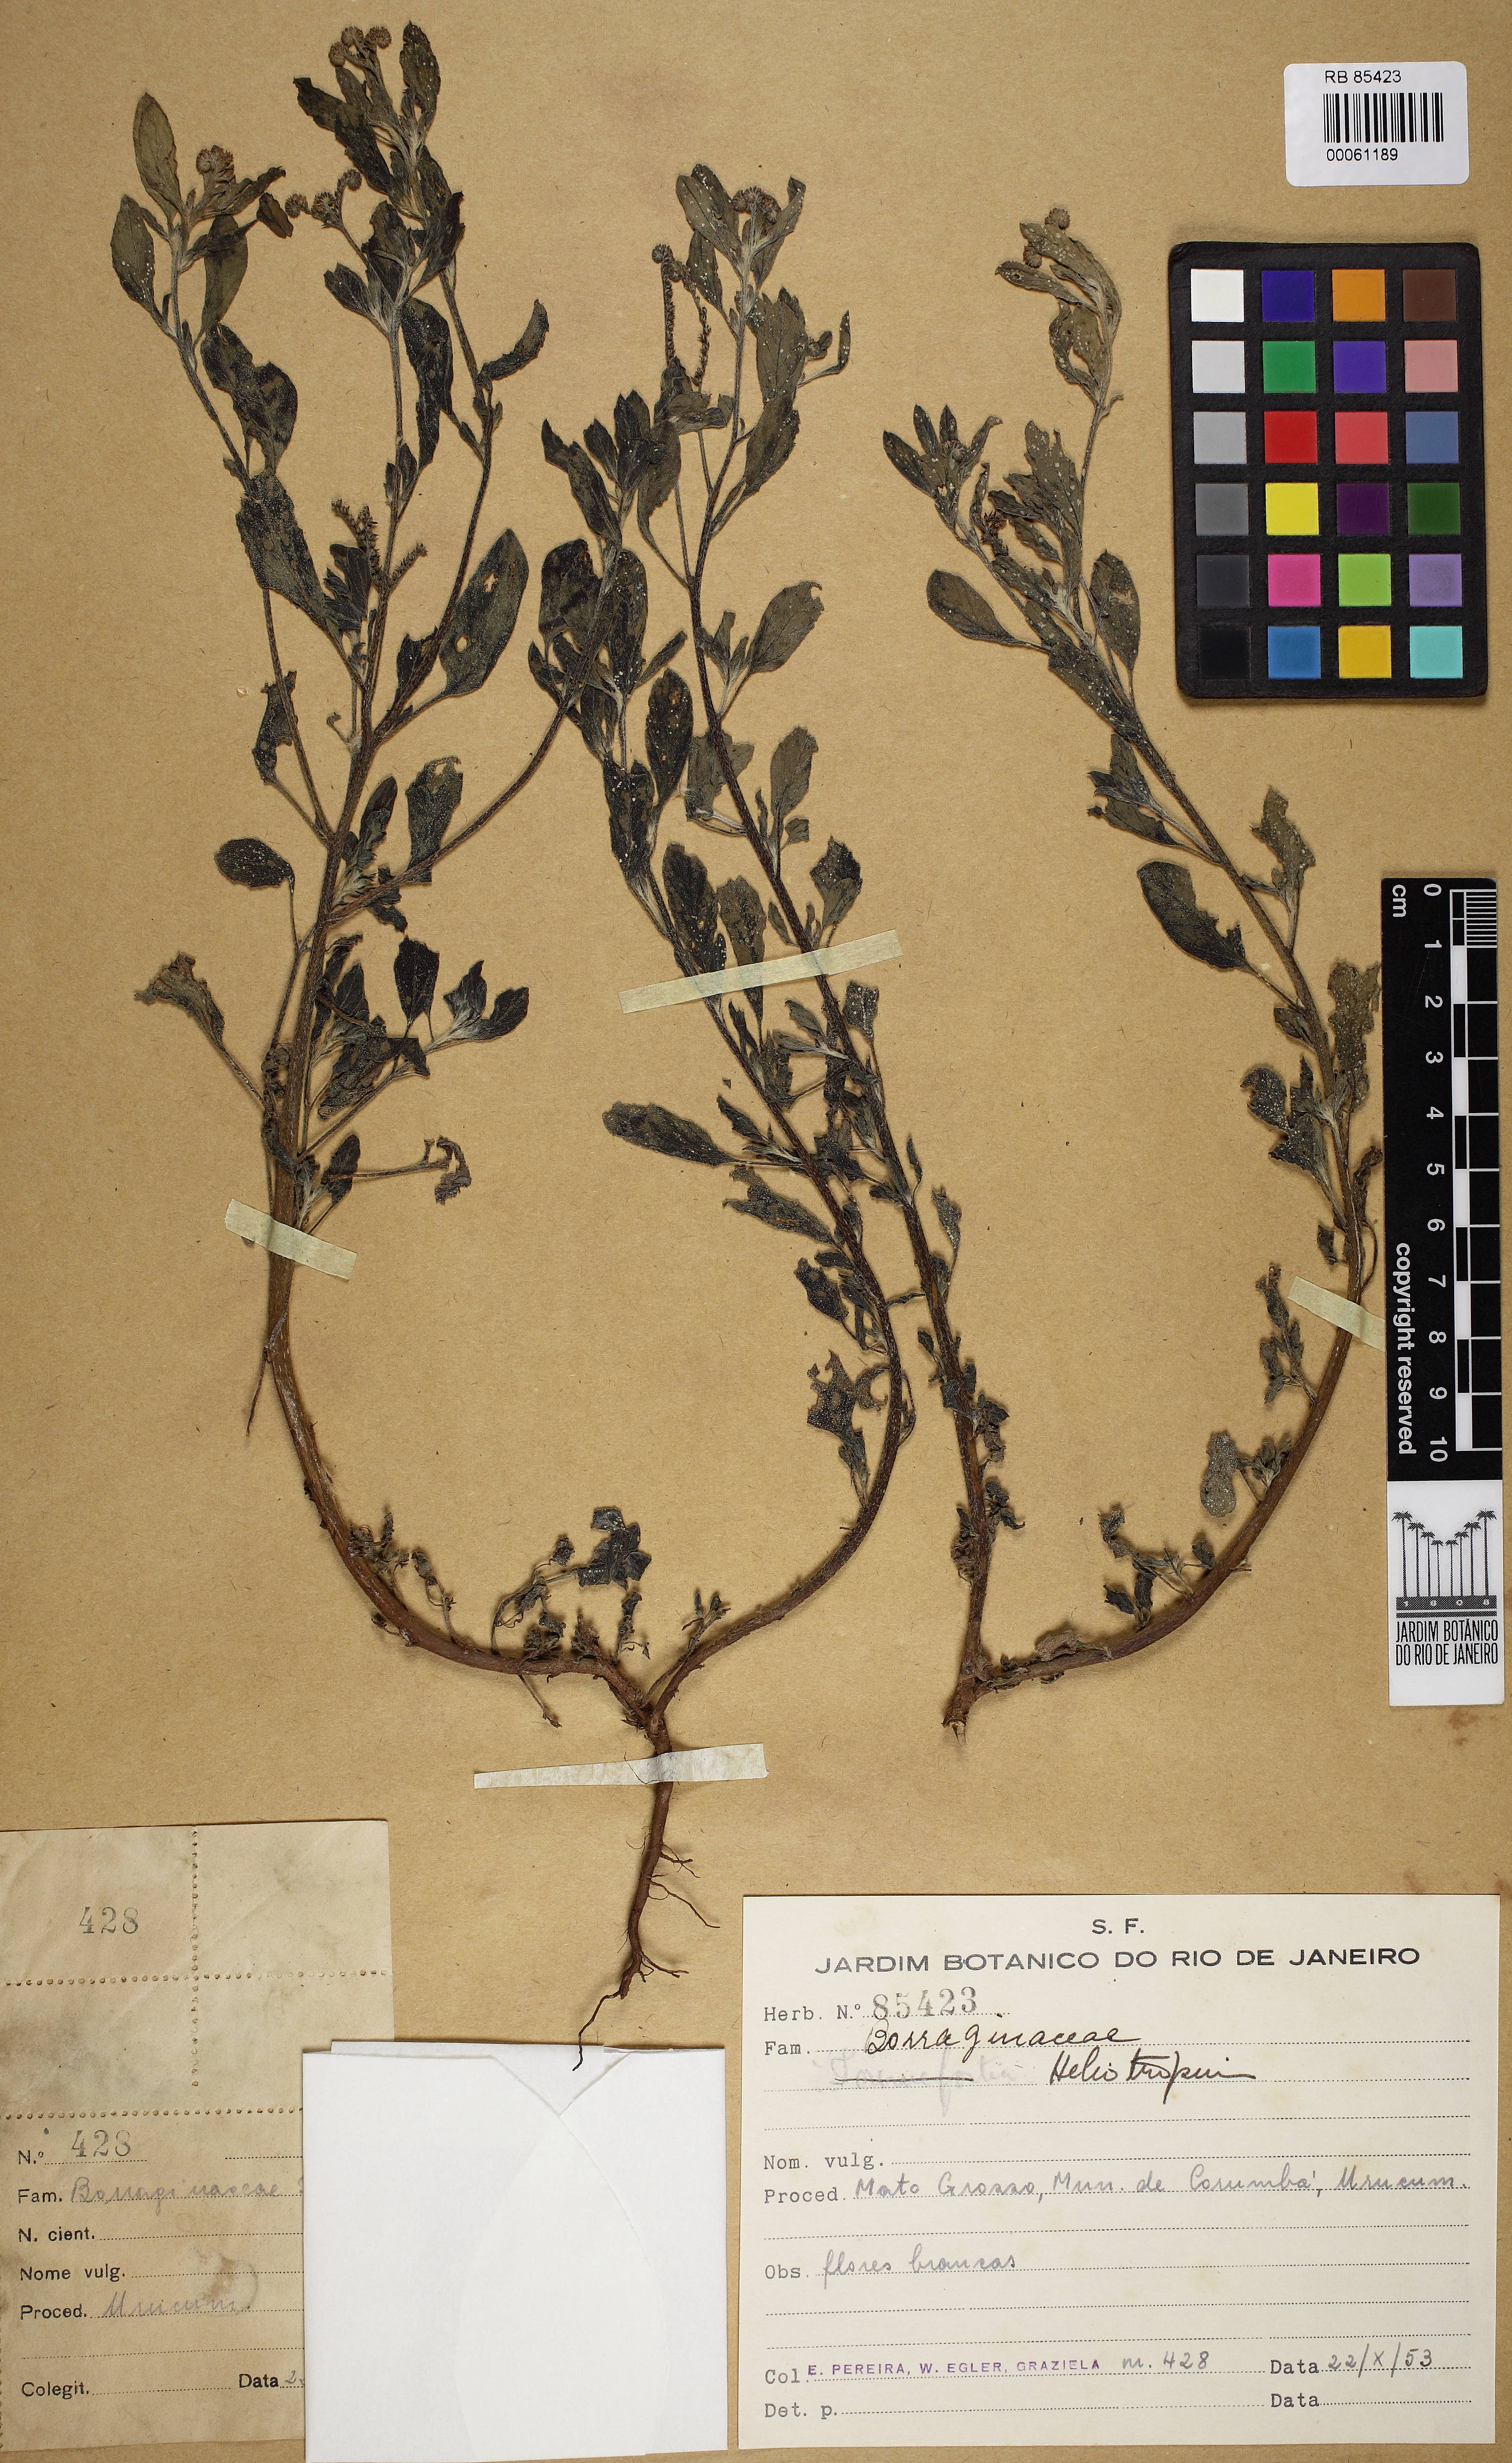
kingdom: Plantae
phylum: Tracheophyta
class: Magnoliopsida
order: Boraginales
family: Heliotropiaceae
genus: Euploca
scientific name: Euploca procumbens
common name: Fourspike heliotrope
